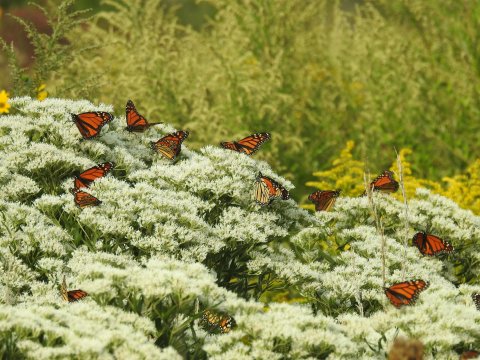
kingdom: Animalia
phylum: Arthropoda
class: Insecta
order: Lepidoptera
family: Nymphalidae
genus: Danaus
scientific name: Danaus plexippus
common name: Monarch
